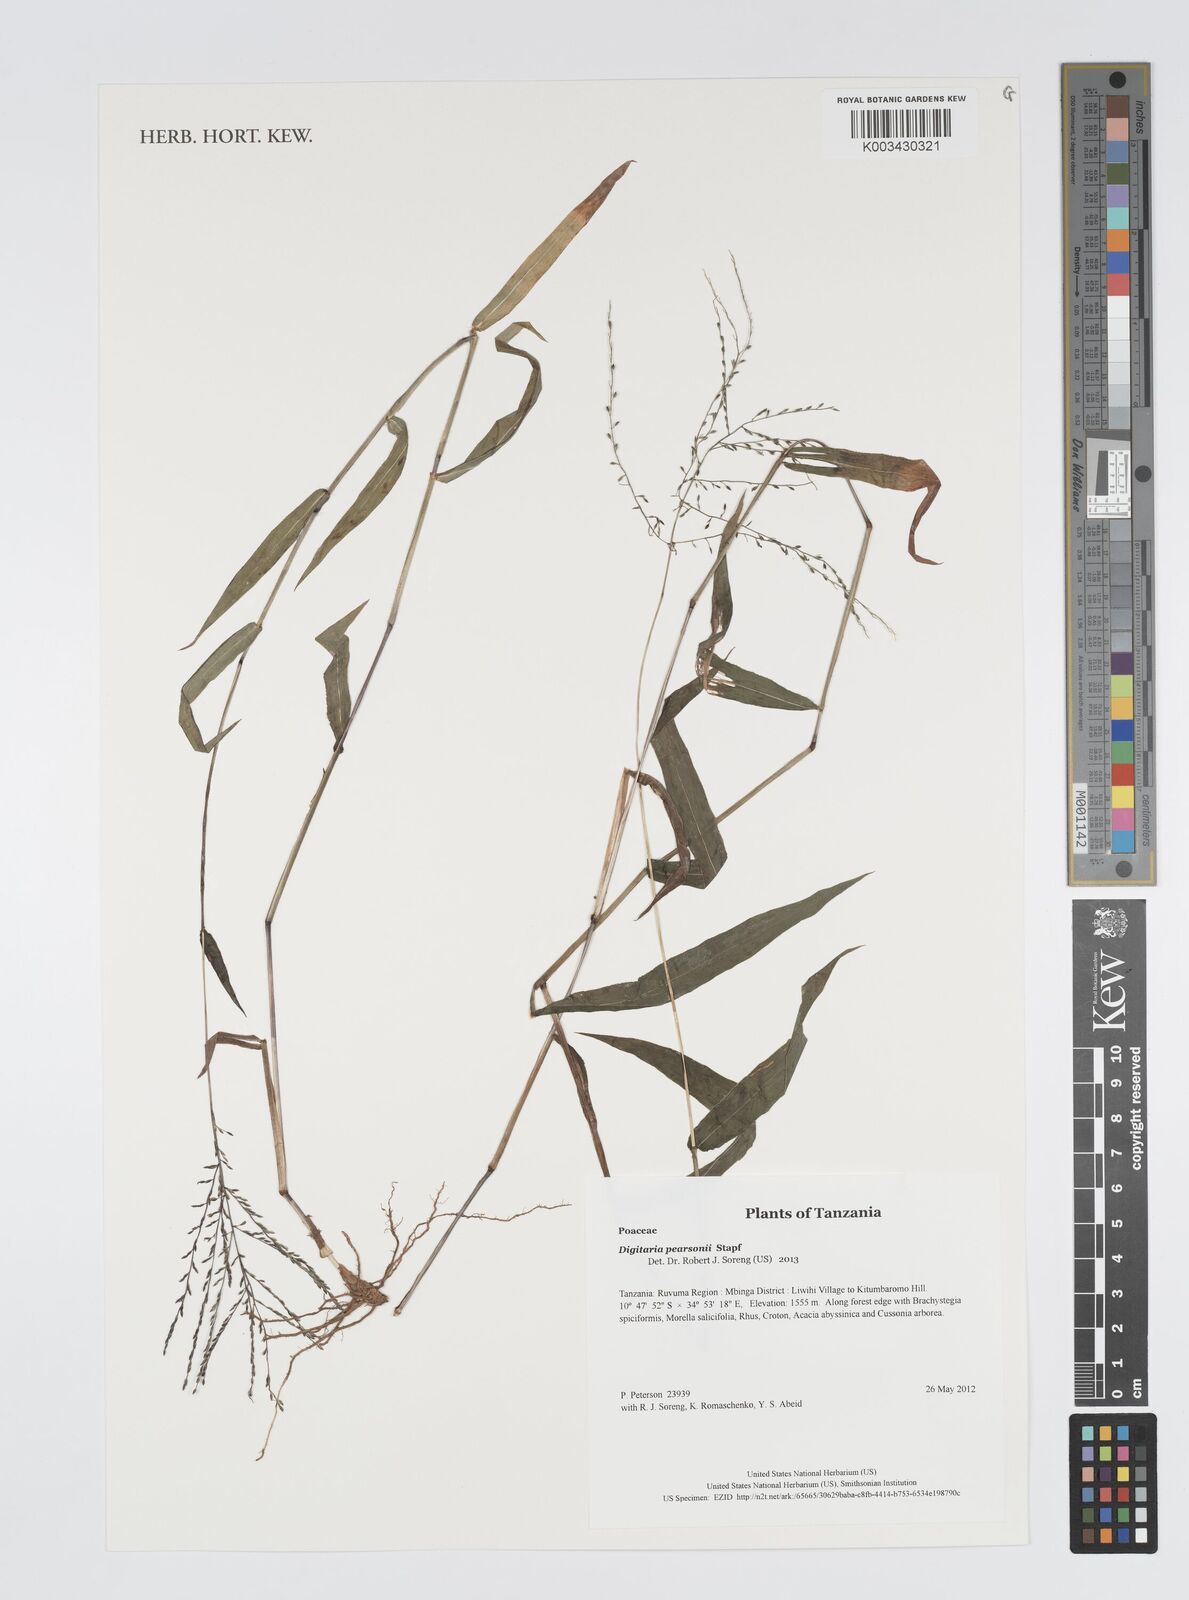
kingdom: Plantae
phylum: Tracheophyta
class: Liliopsida
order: Poales
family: Poaceae
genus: Digitaria
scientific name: Digitaria pearsonii
